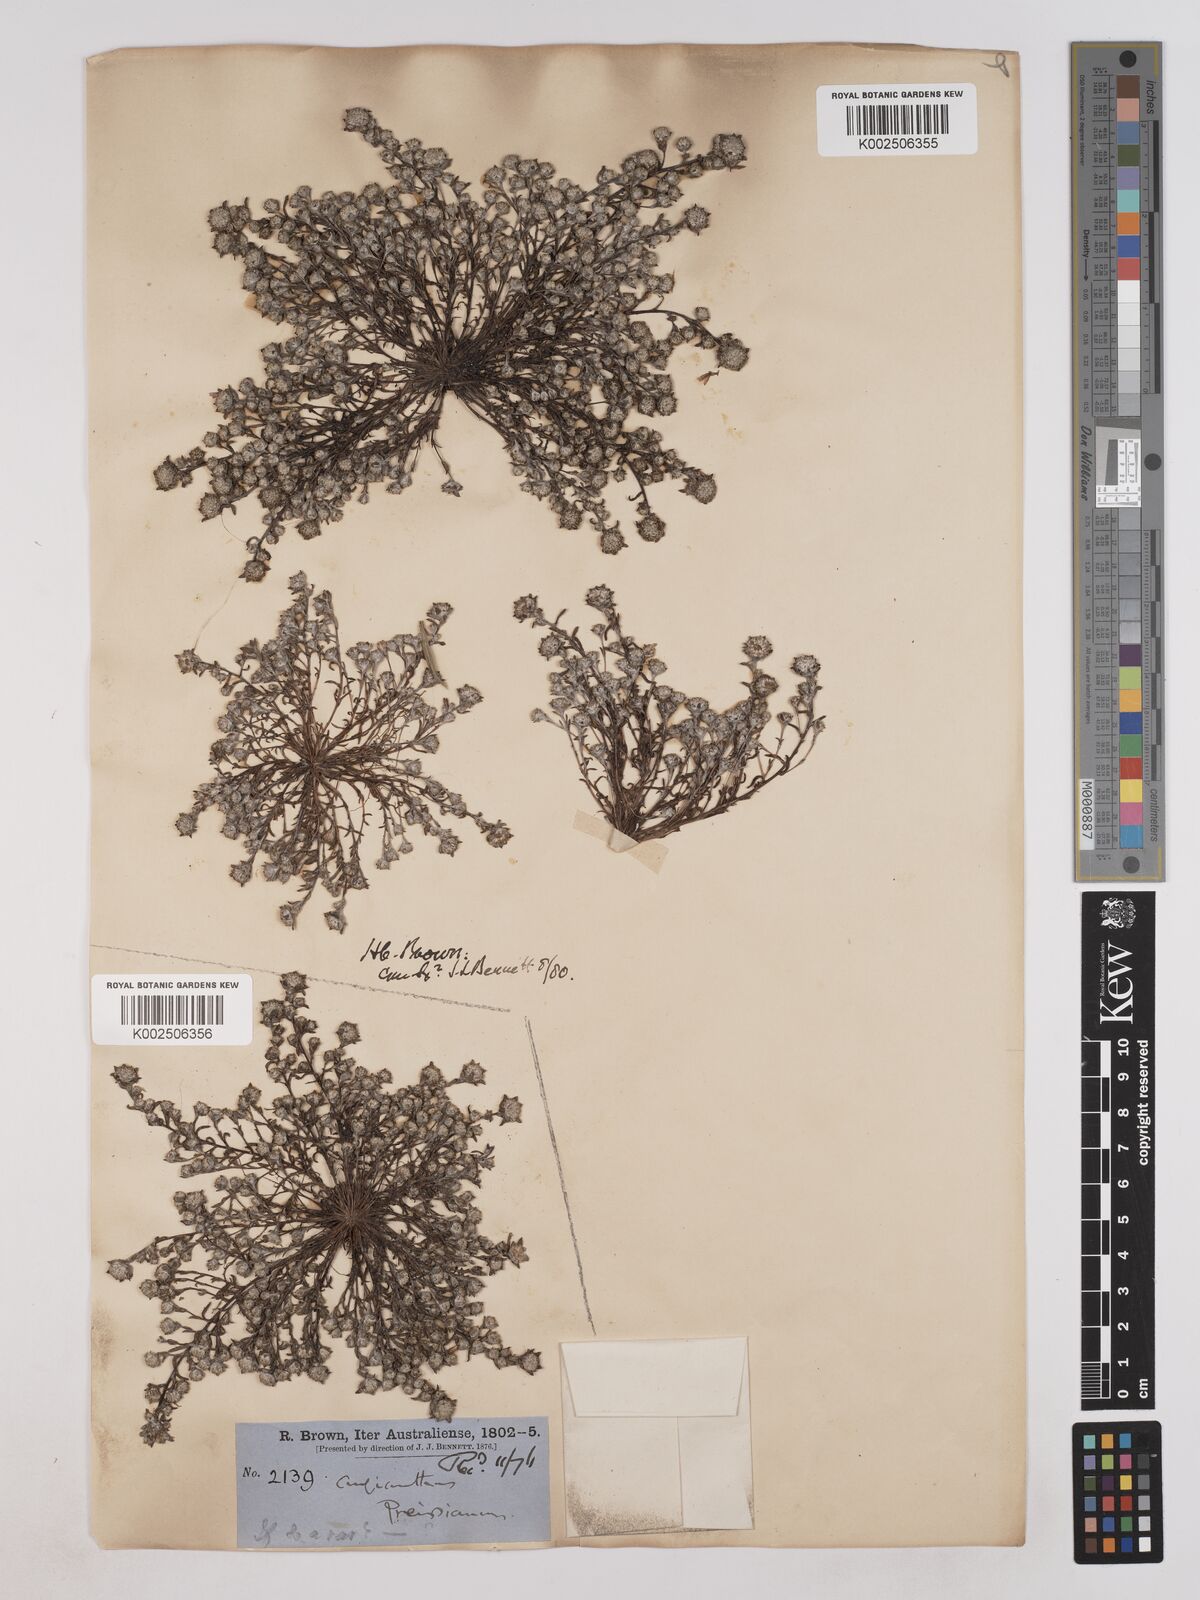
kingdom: Plantae
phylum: Tracheophyta
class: Magnoliopsida
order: Asterales
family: Asteraceae
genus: Angianthus
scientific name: Angianthus preissianus
